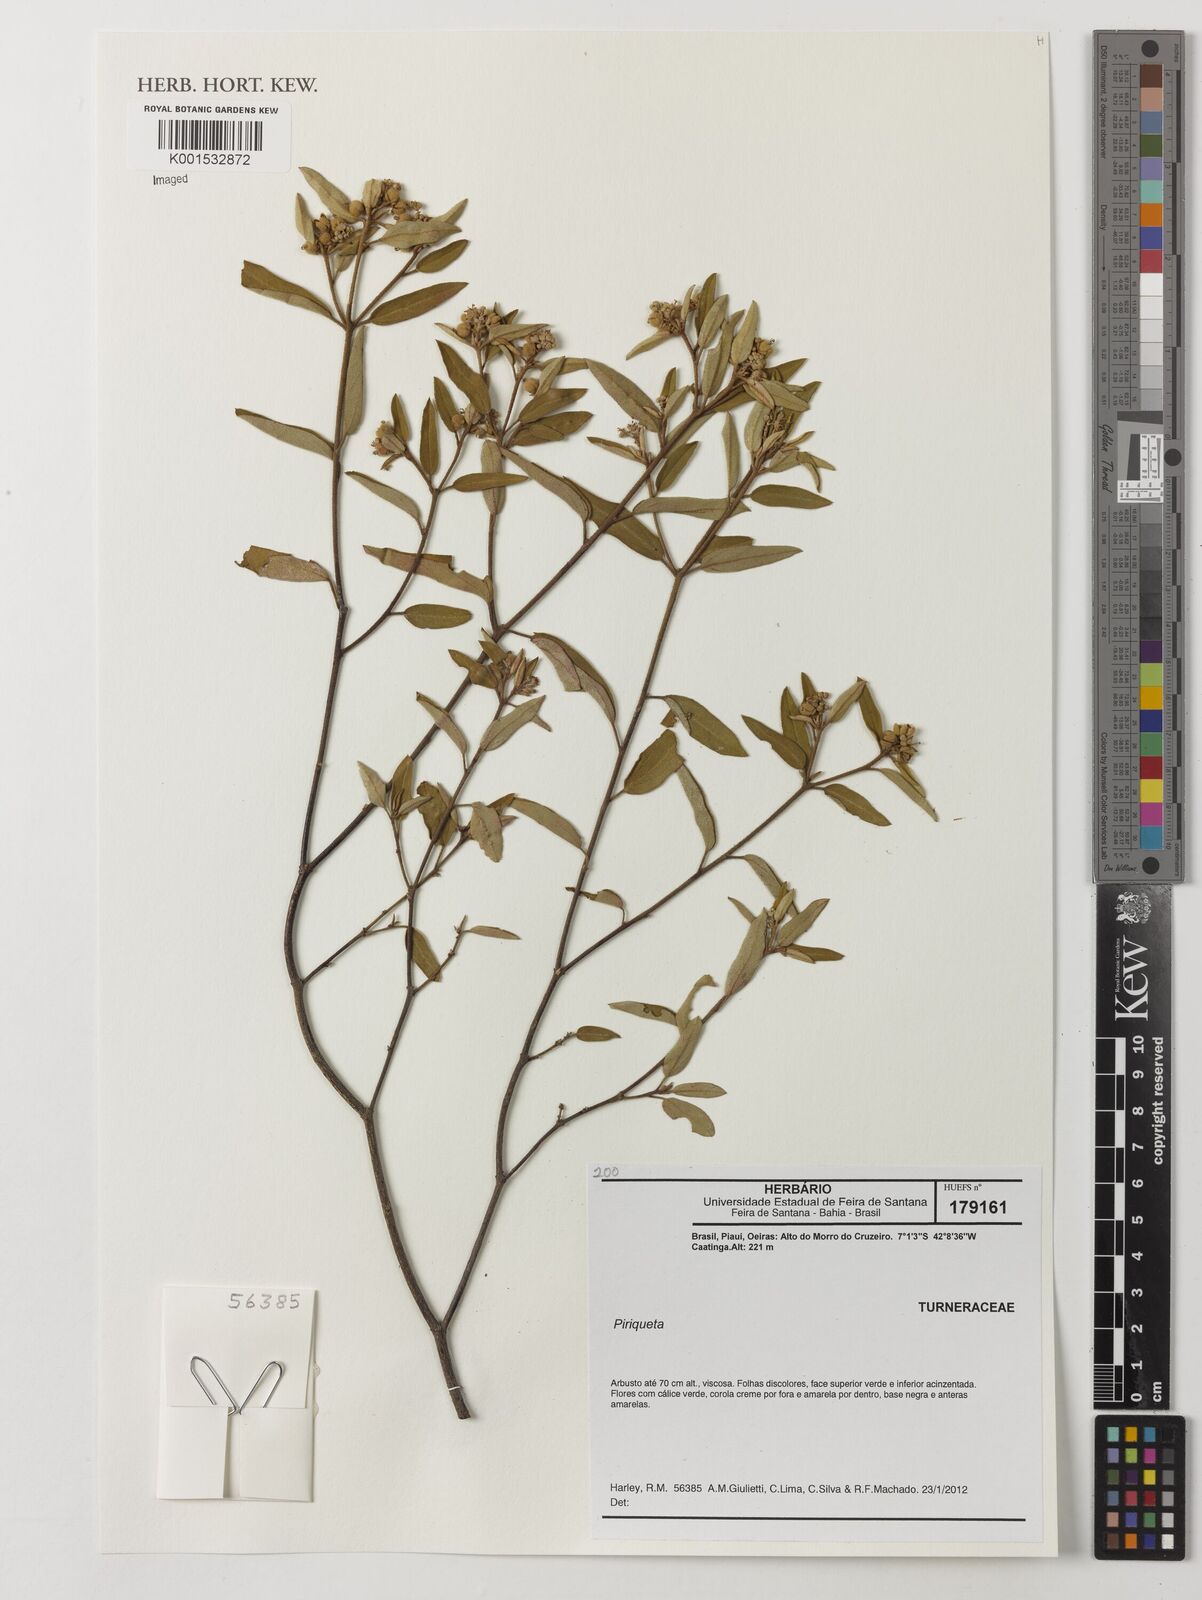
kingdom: Plantae
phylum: Tracheophyta
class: Magnoliopsida
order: Malpighiales
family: Turneraceae
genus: Piriqueta
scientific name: Piriqueta
